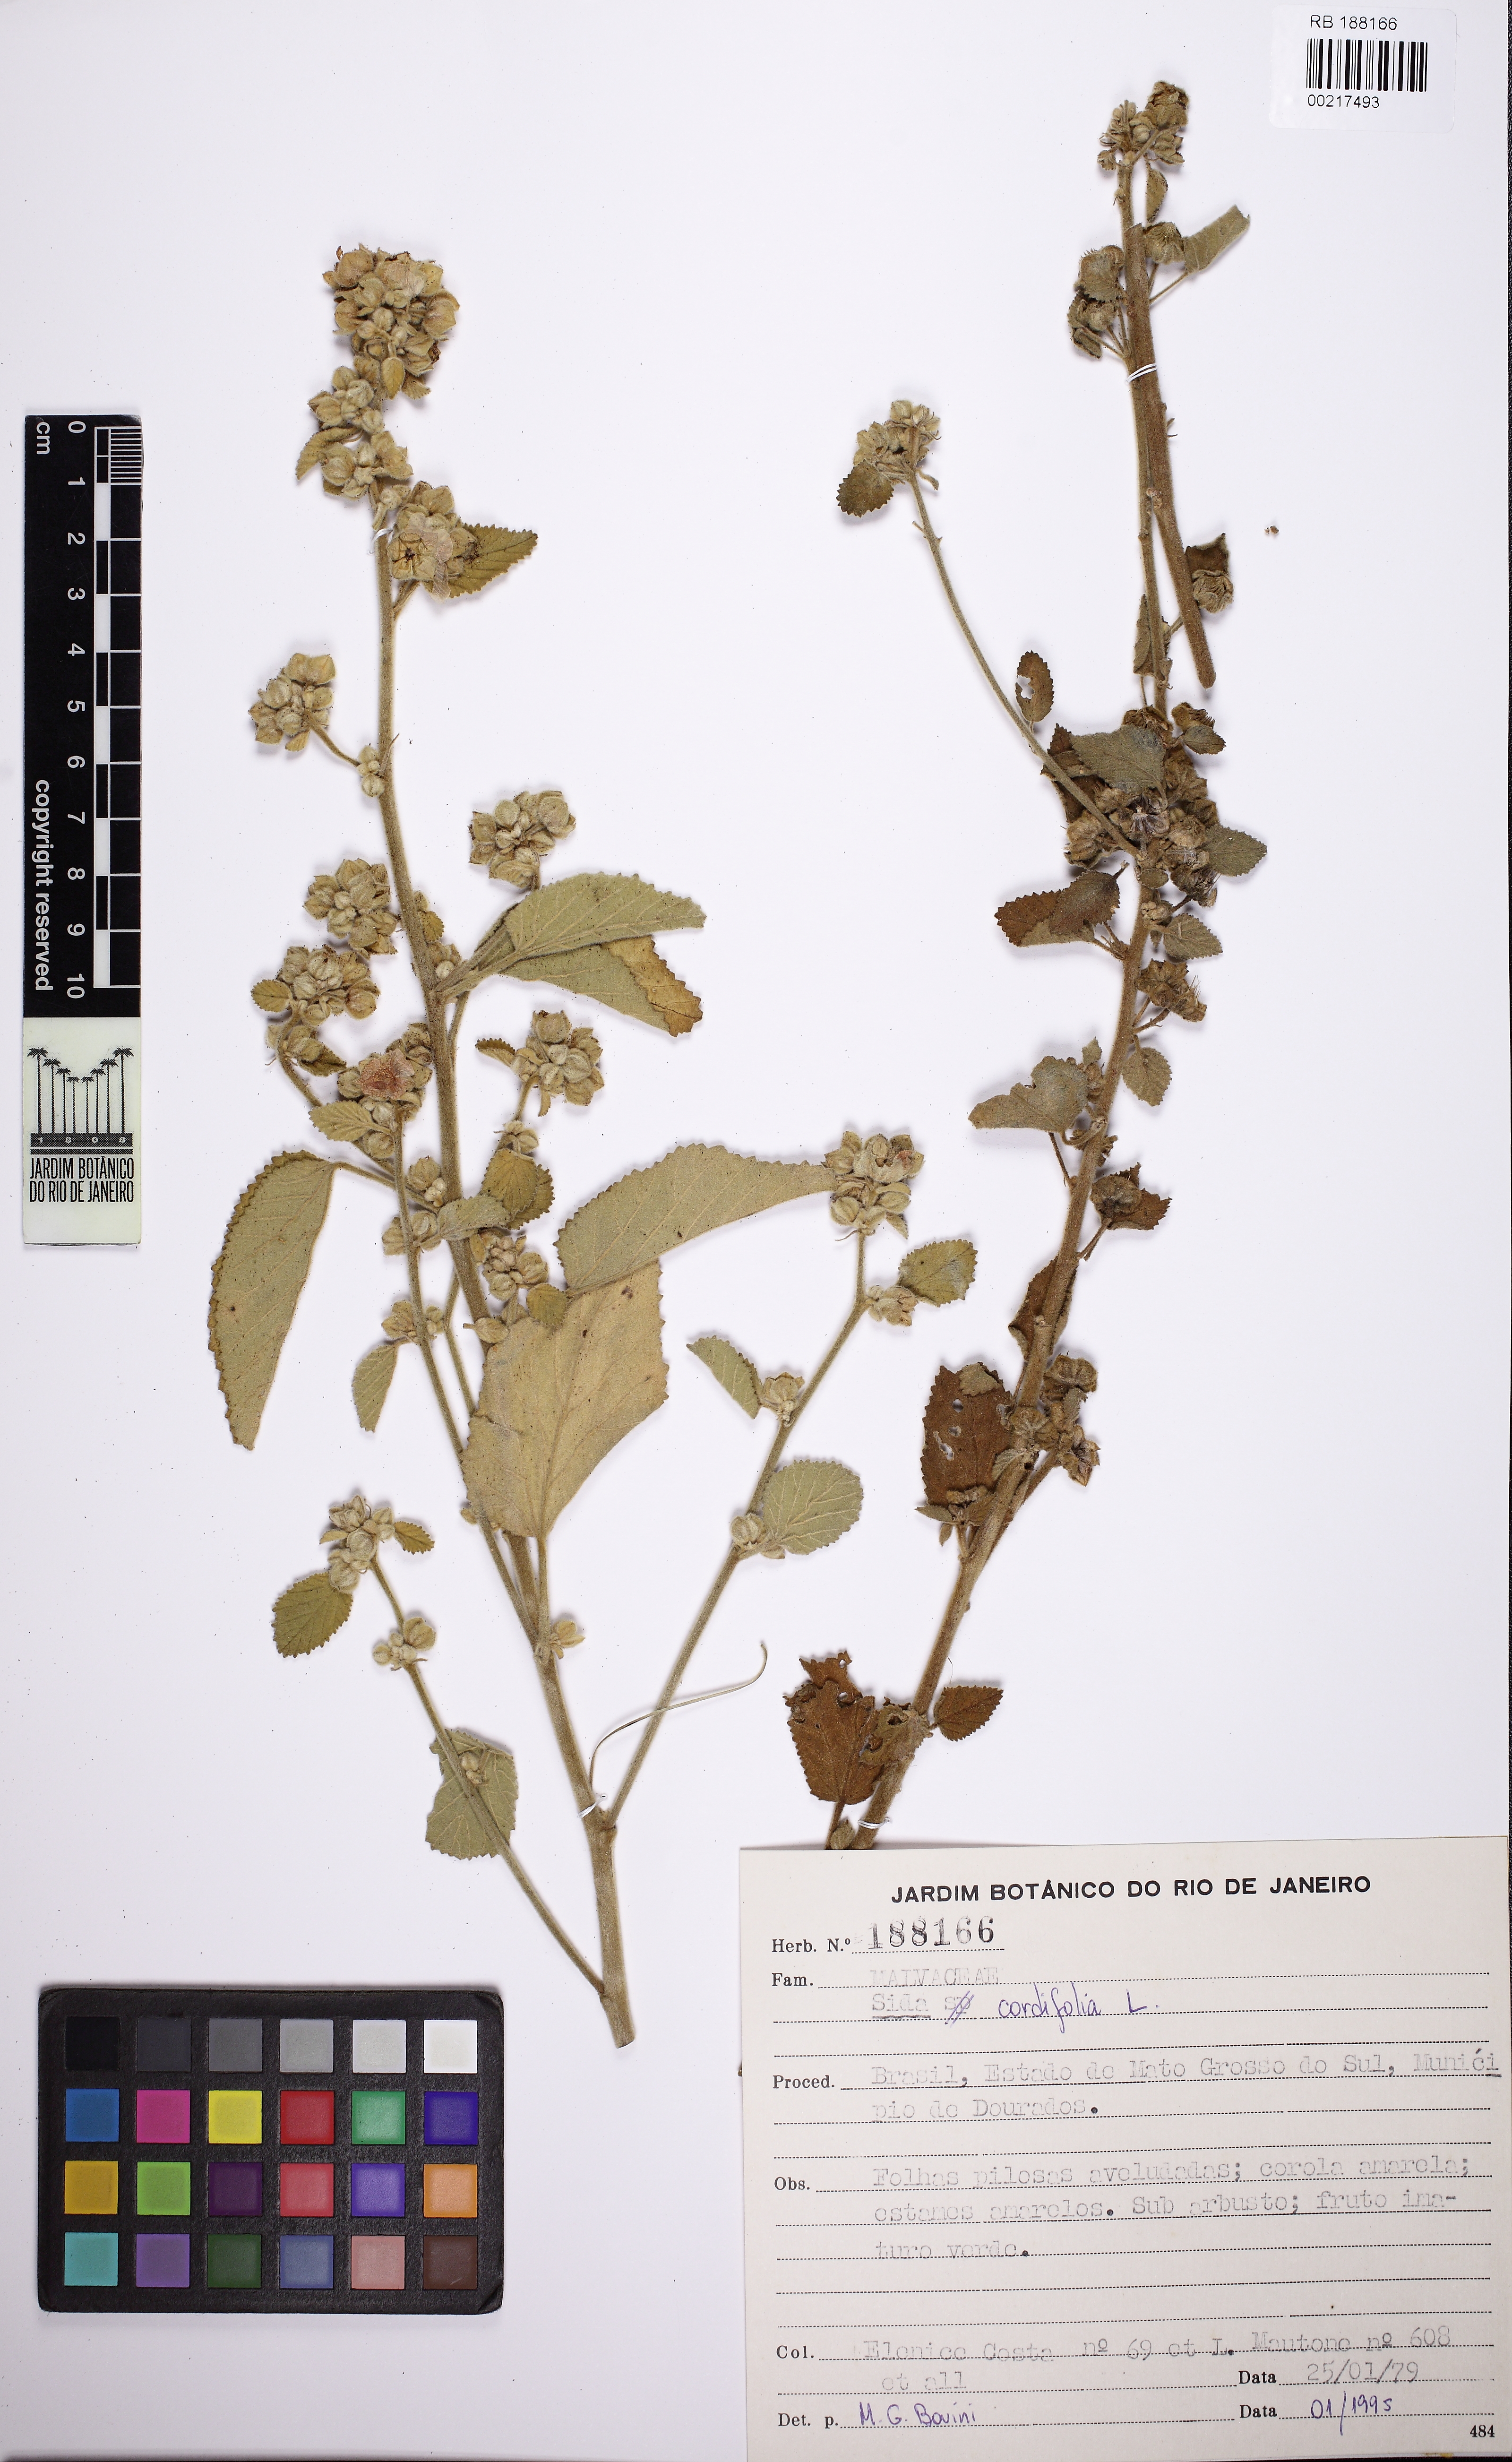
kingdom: Plantae
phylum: Tracheophyta
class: Magnoliopsida
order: Malvales
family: Malvaceae
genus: Sida
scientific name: Sida cordifolia
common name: Ilima
